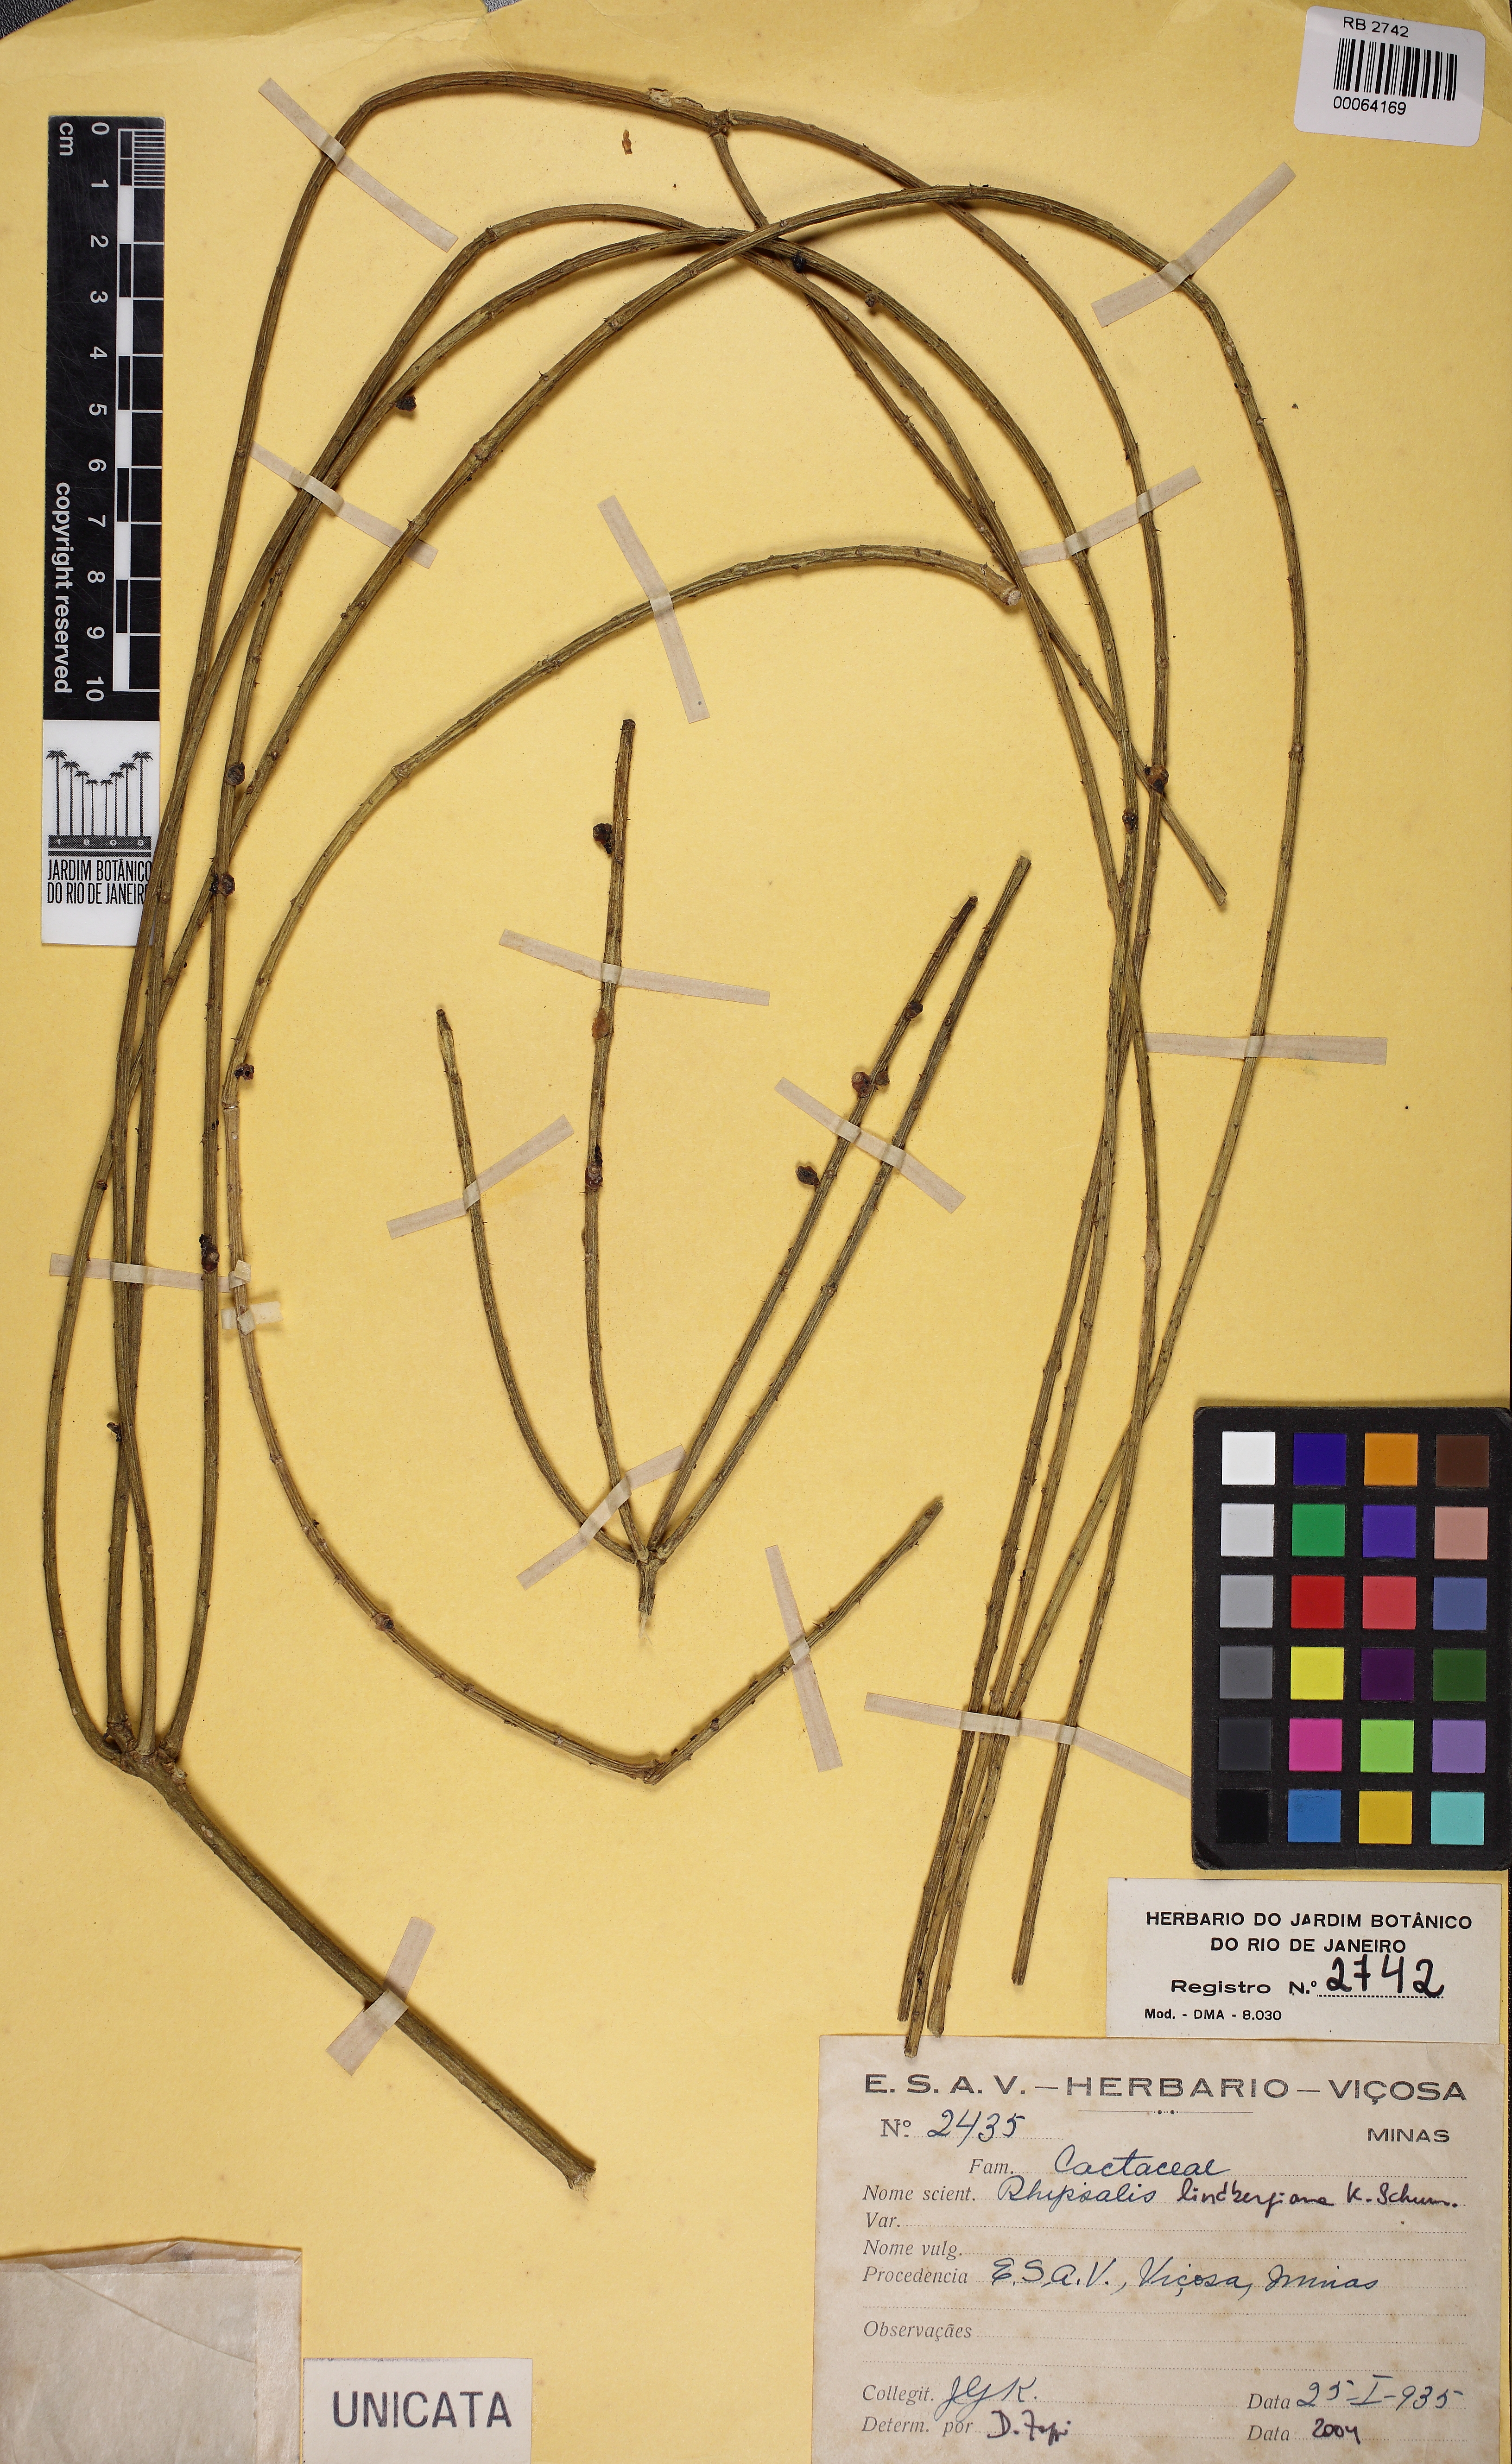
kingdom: Plantae
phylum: Tracheophyta
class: Magnoliopsida
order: Caryophyllales
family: Cactaceae
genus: Rhipsalis
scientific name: Rhipsalis lindbergiana
